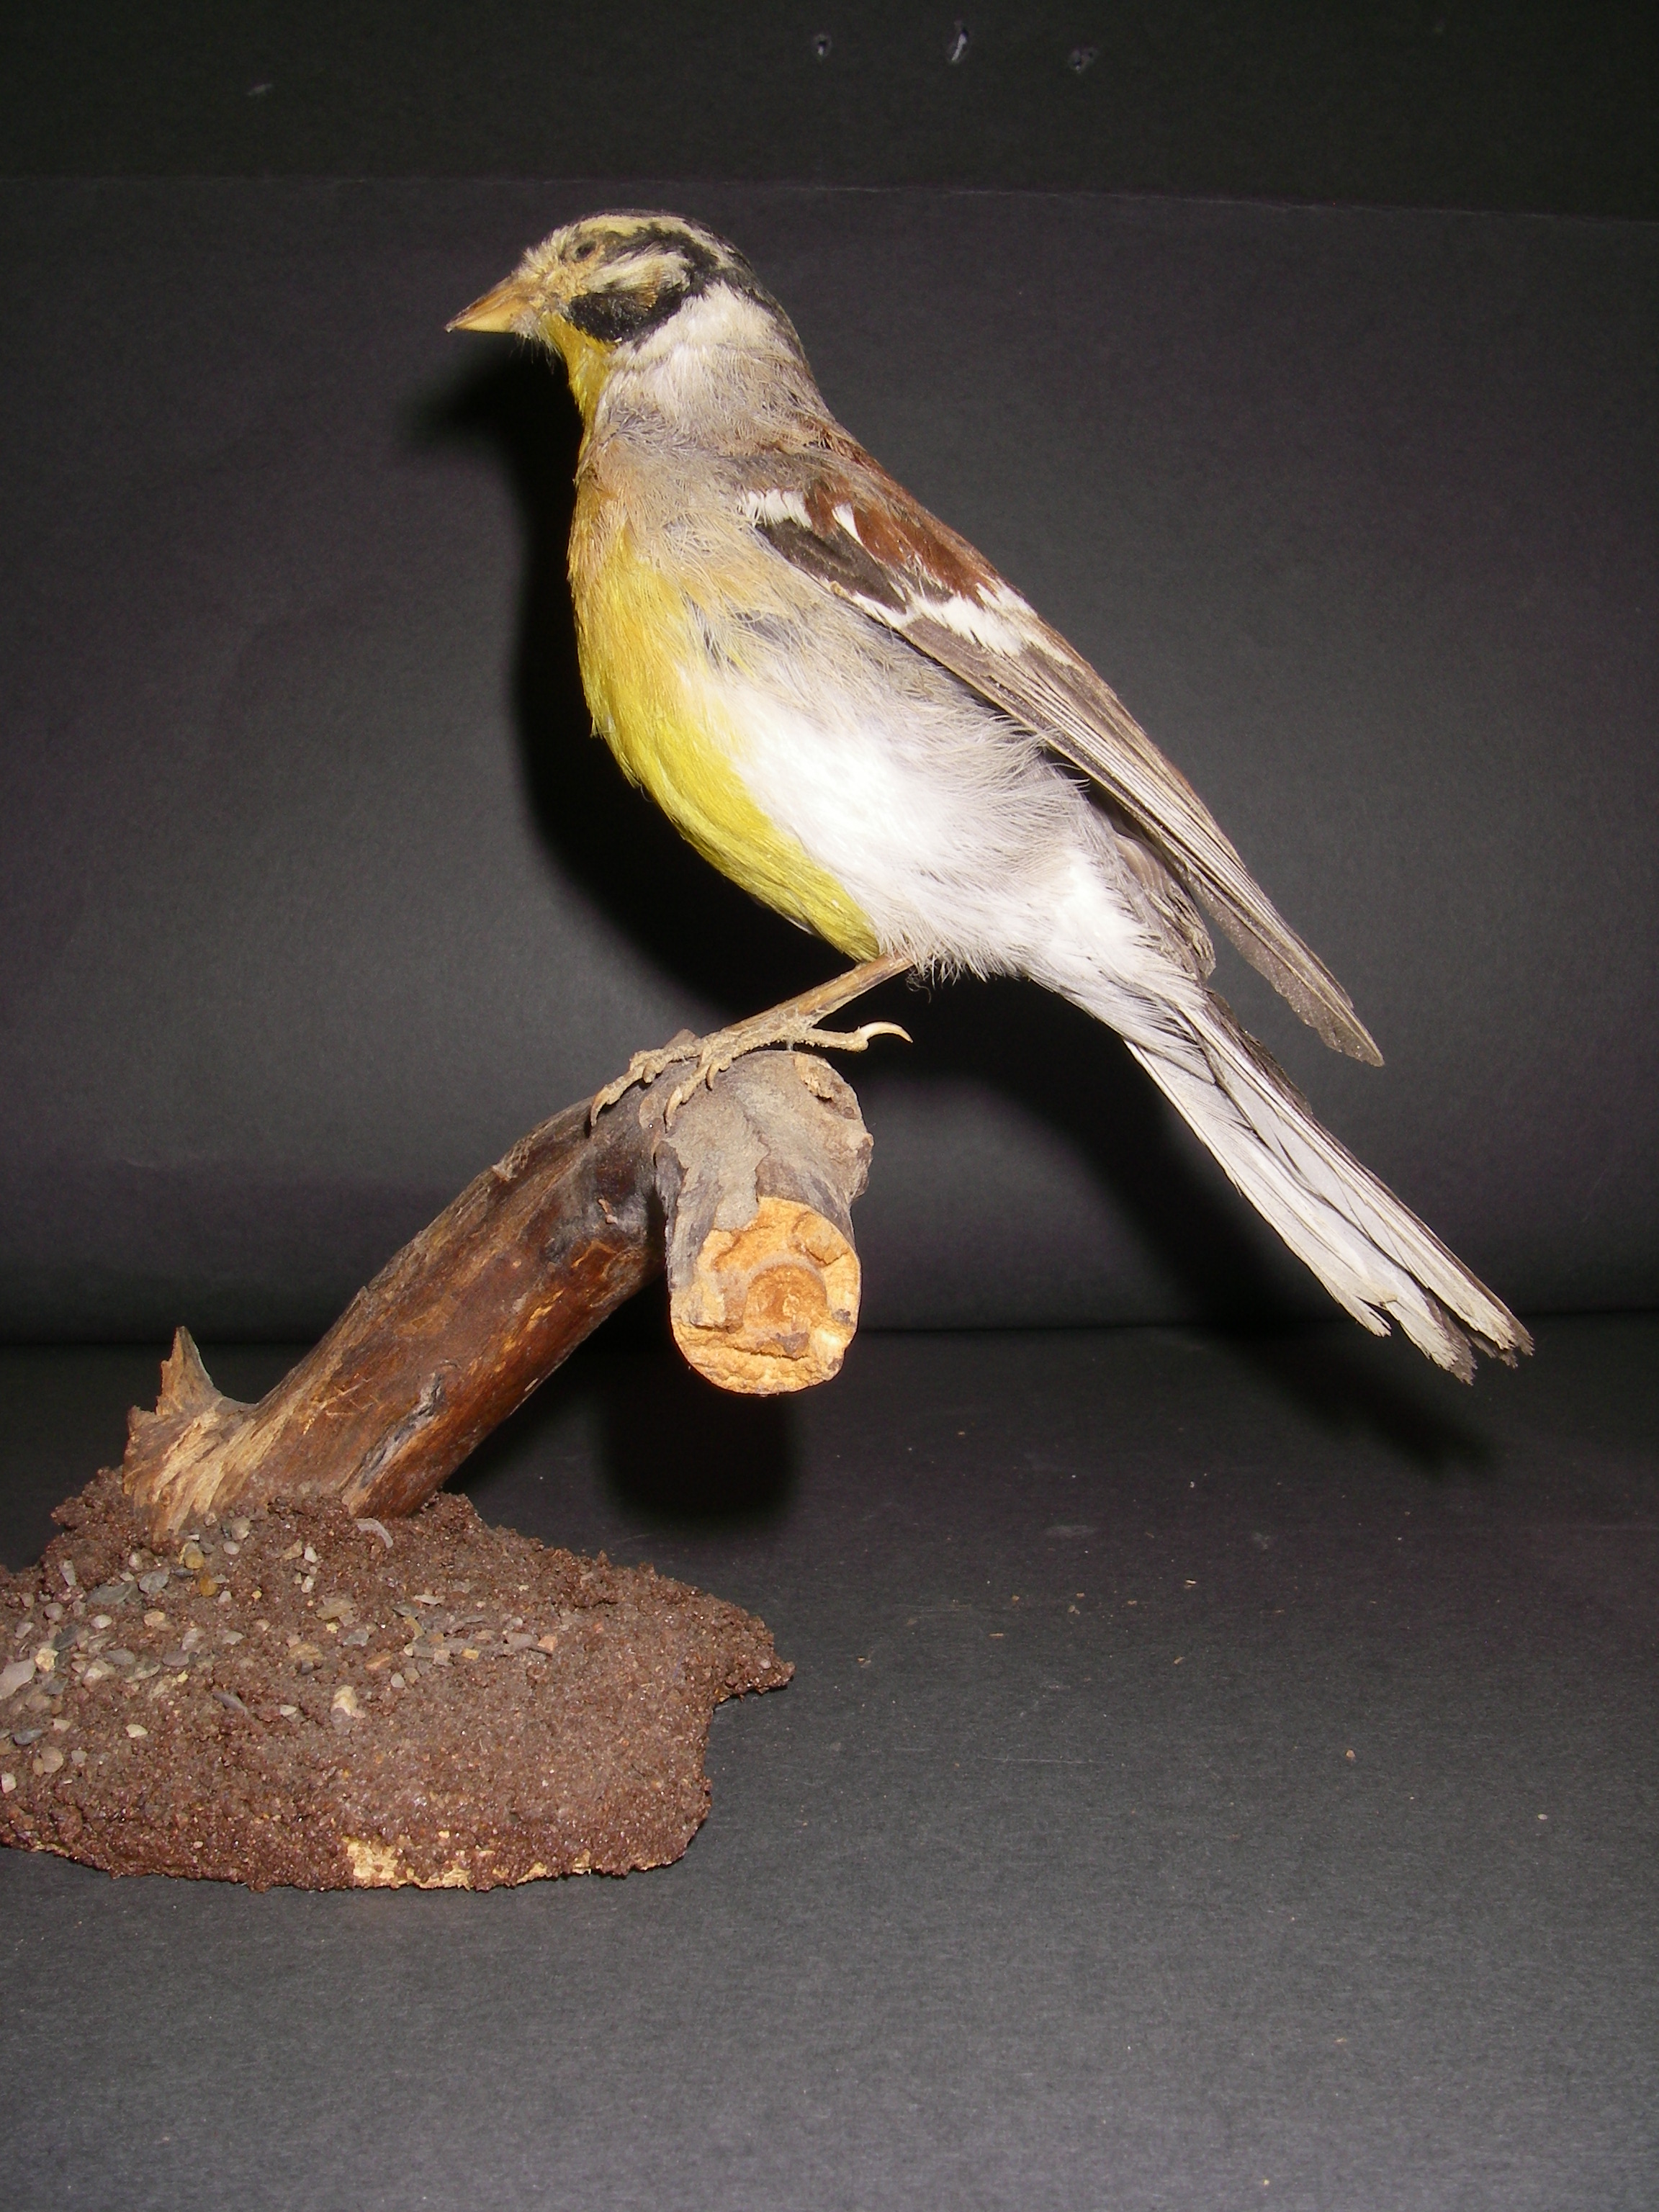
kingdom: Animalia
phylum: Chordata
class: Aves
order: Passeriformes
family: Emberizidae
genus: Emberiza
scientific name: Emberiza flaviventris
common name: Golden-breasted bunting
